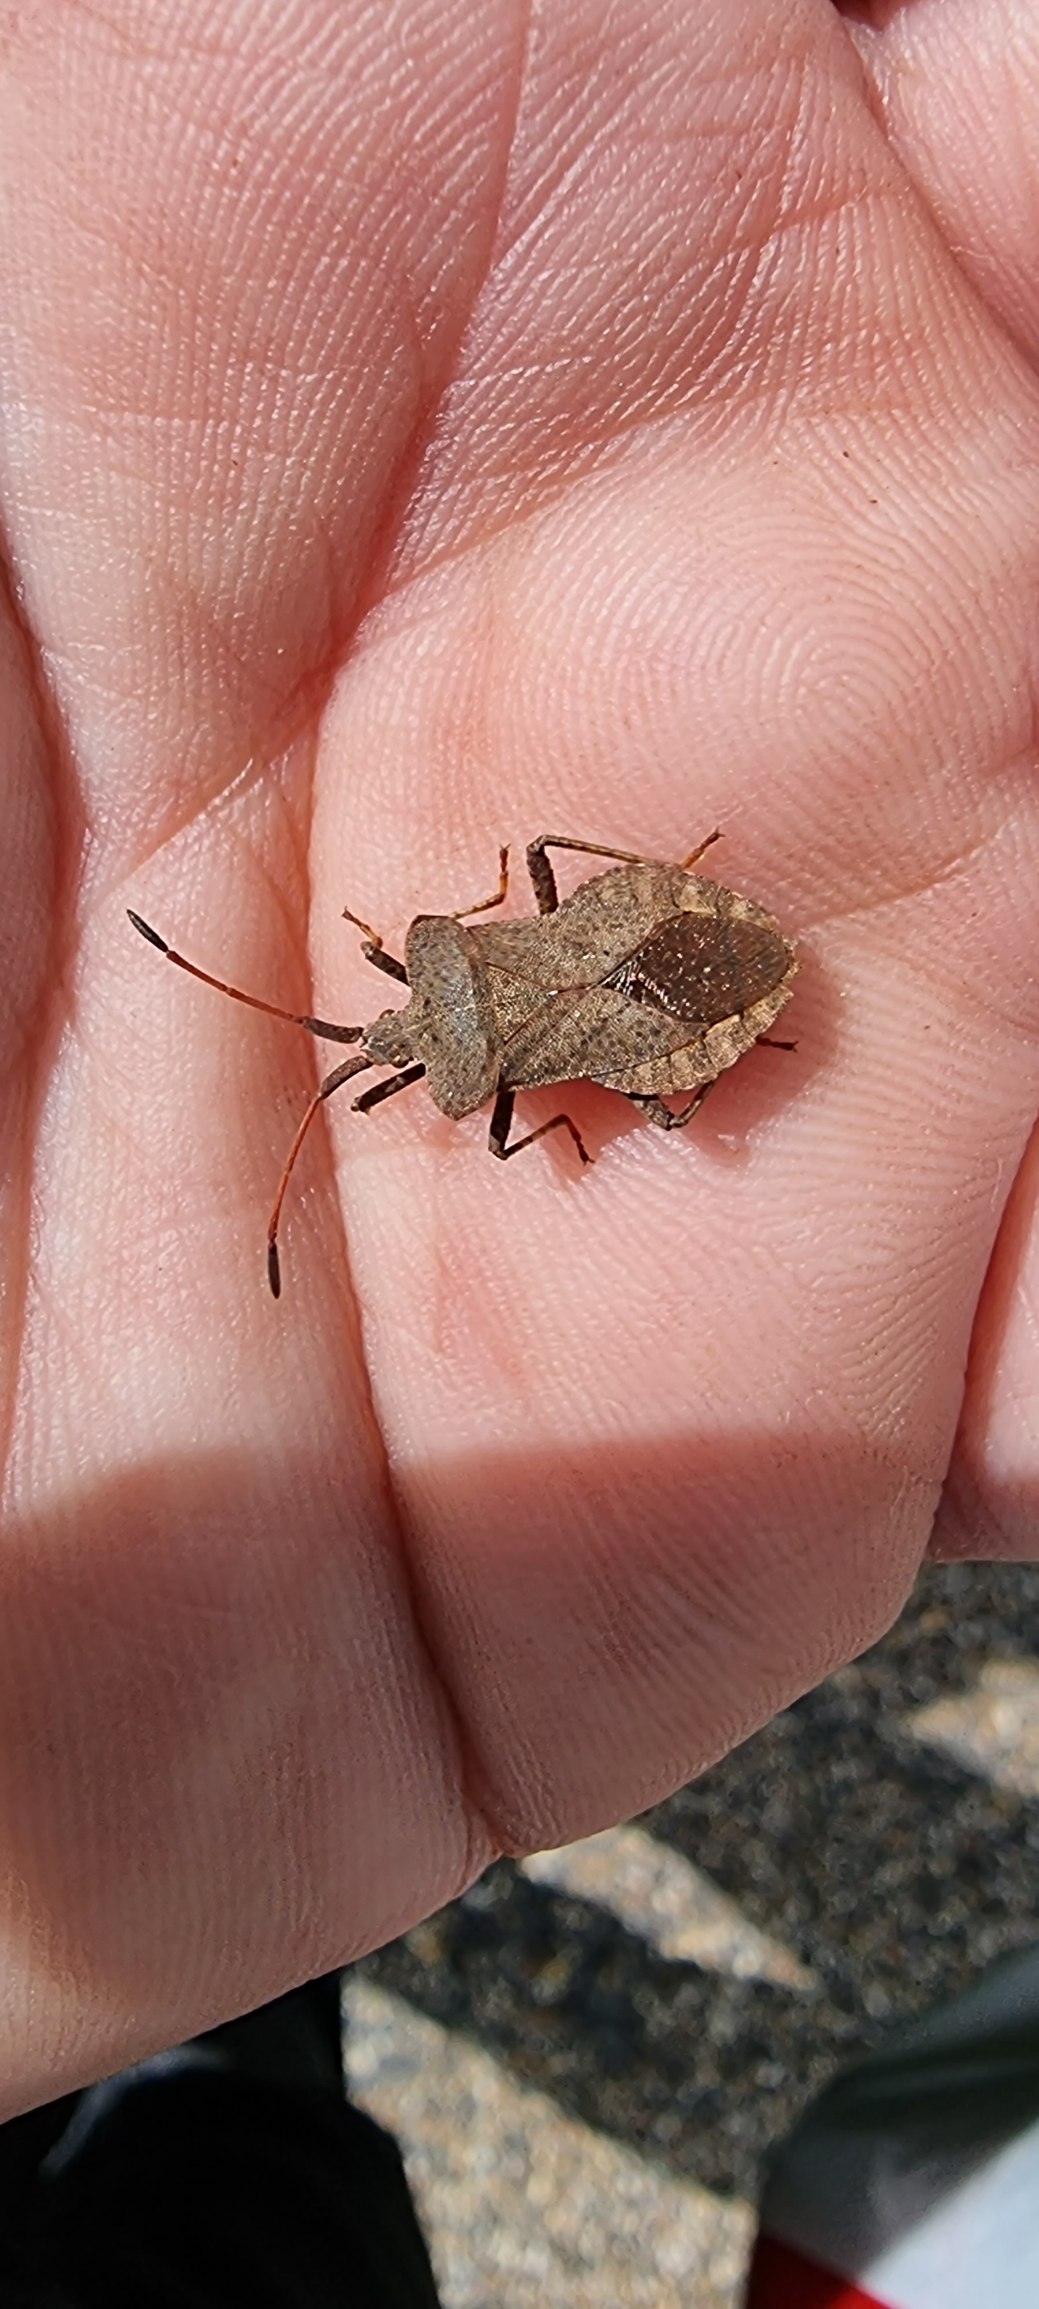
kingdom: Animalia
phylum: Arthropoda
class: Insecta
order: Hemiptera
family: Coreidae
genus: Coreus
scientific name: Coreus marginatus
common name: Skræppetæge
